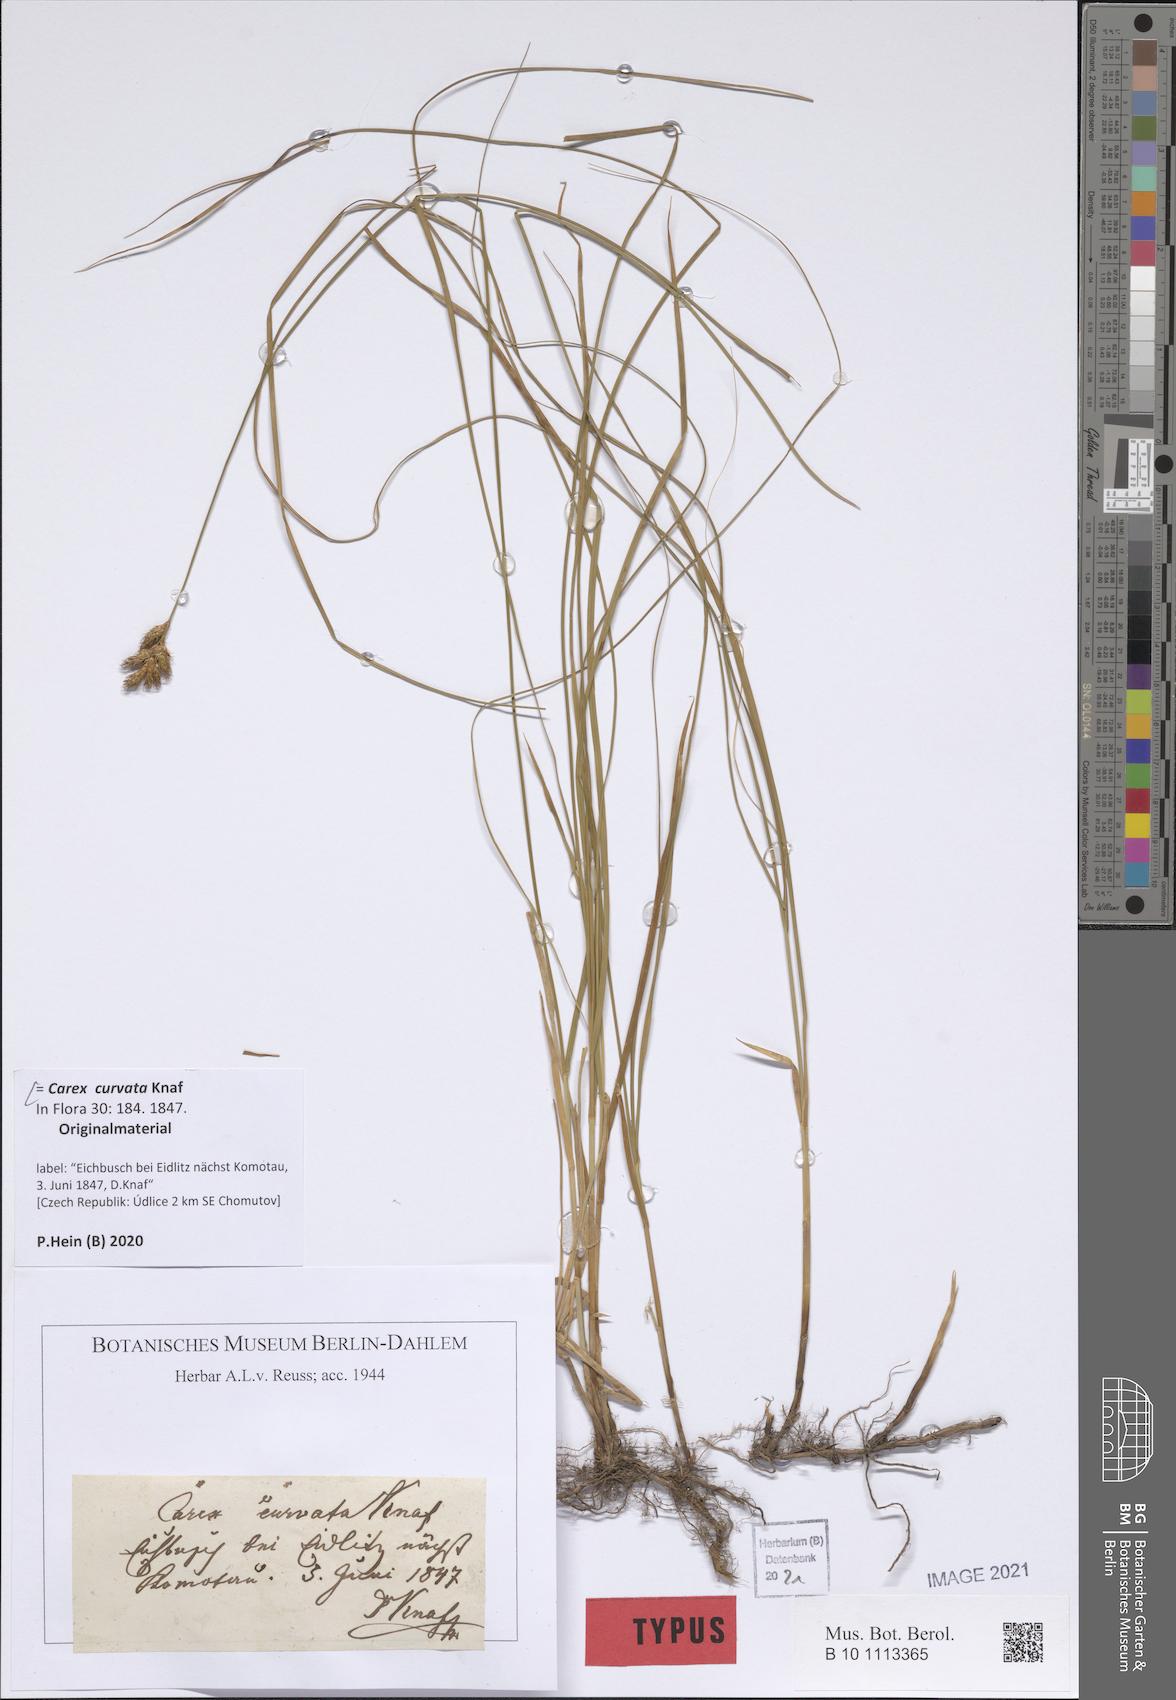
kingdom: Plantae
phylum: Tracheophyta
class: Liliopsida
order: Poales
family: Cyperaceae
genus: Carex
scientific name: Carex curvata
